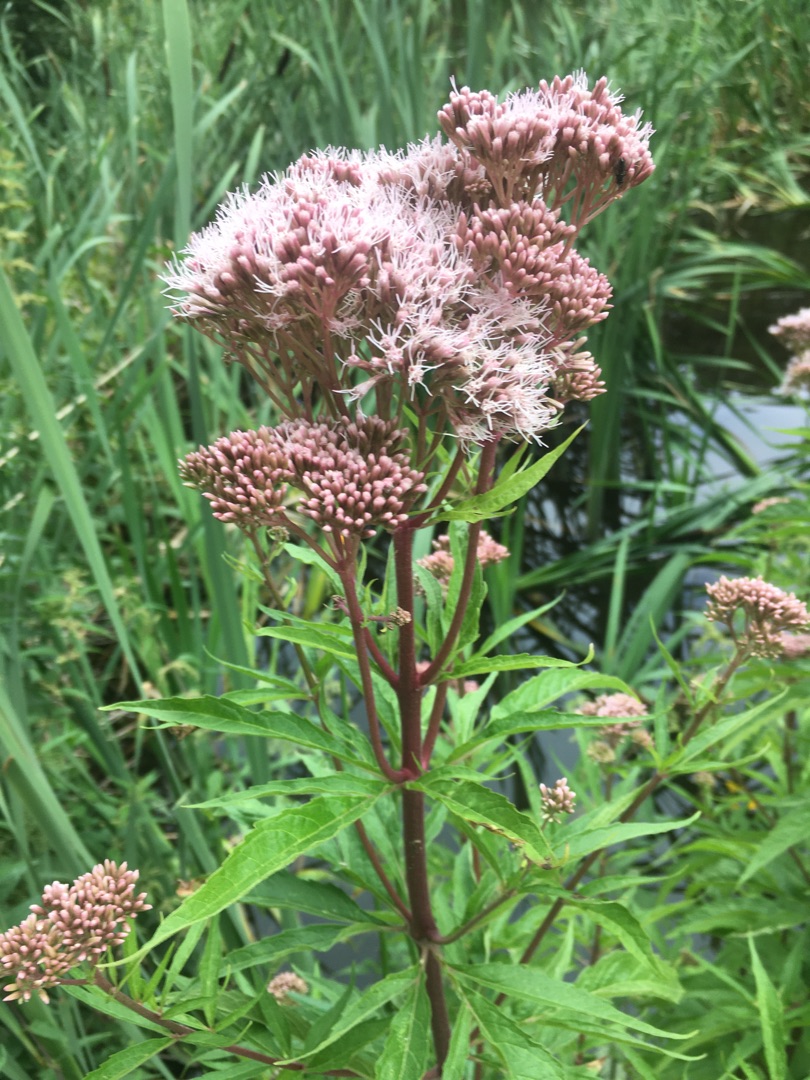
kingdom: Plantae
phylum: Tracheophyta
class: Magnoliopsida
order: Asterales
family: Asteraceae
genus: Eupatorium
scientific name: Eupatorium cannabinum
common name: Hjortetrøst
